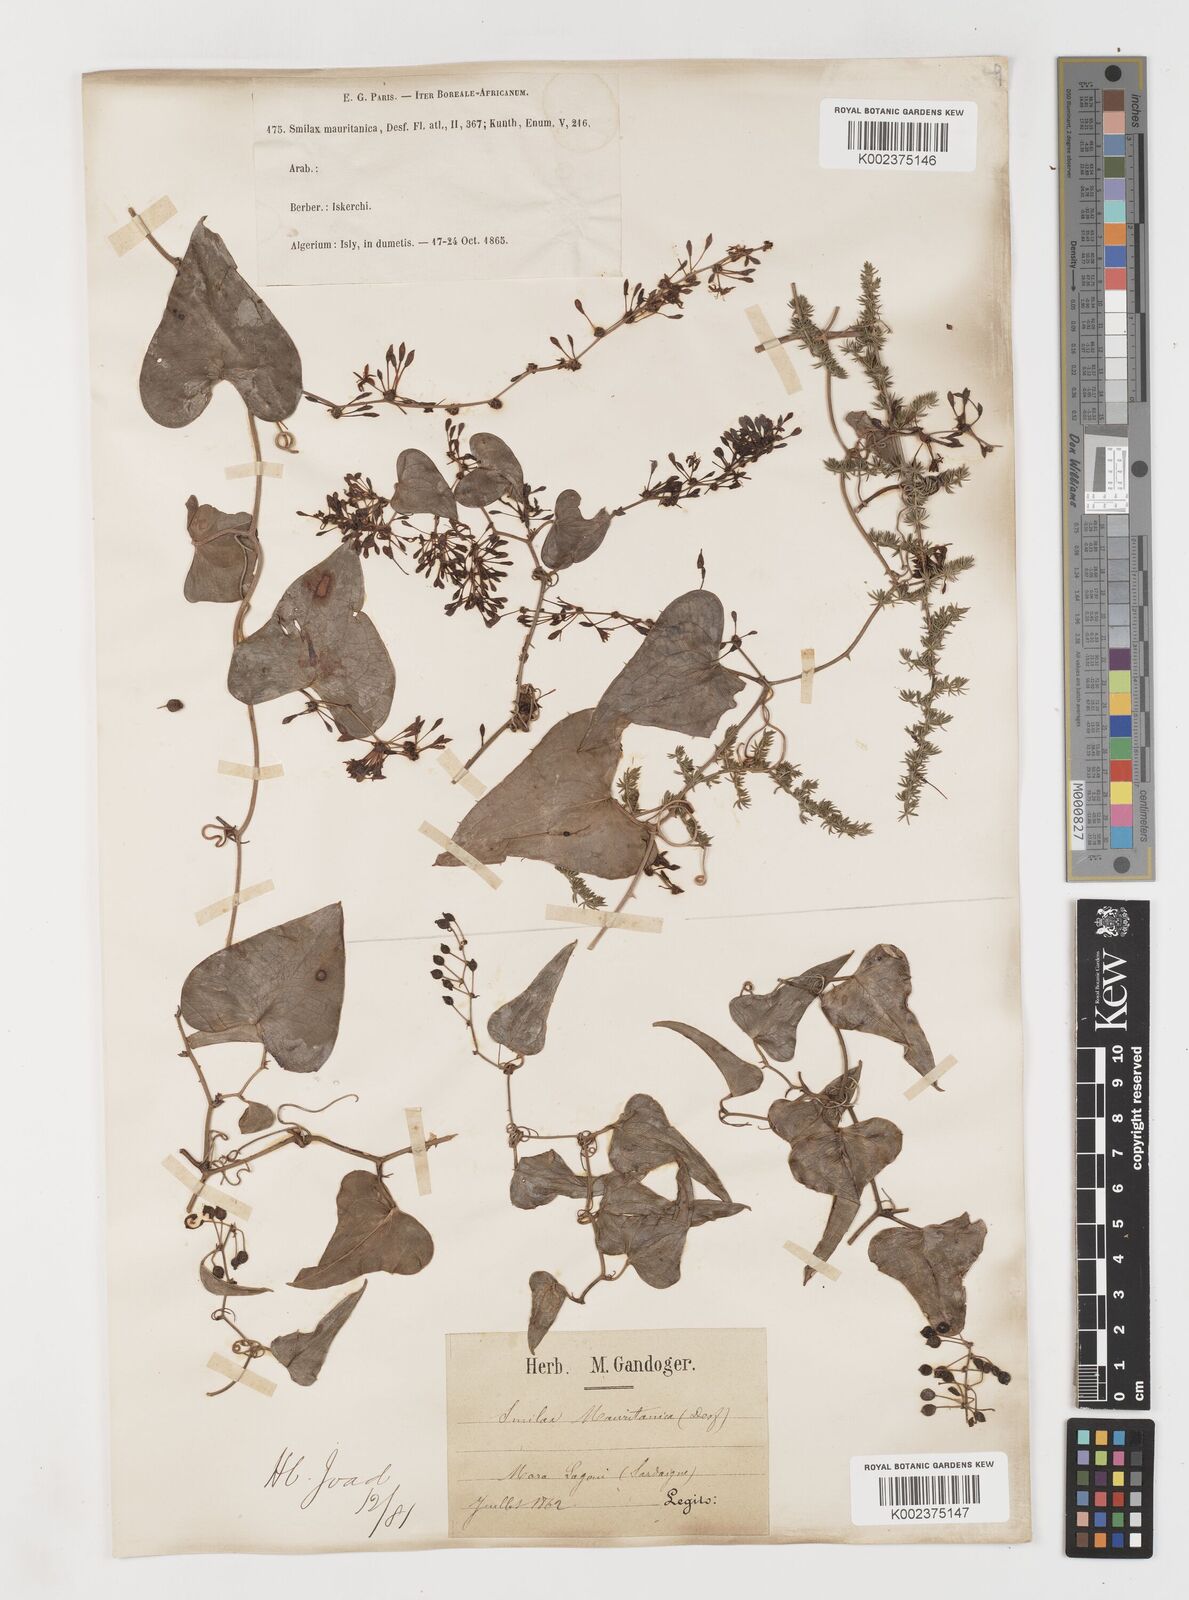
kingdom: Plantae
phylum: Tracheophyta
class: Liliopsida
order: Liliales
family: Smilacaceae
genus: Smilax
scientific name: Smilax aspera
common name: Common smilax
